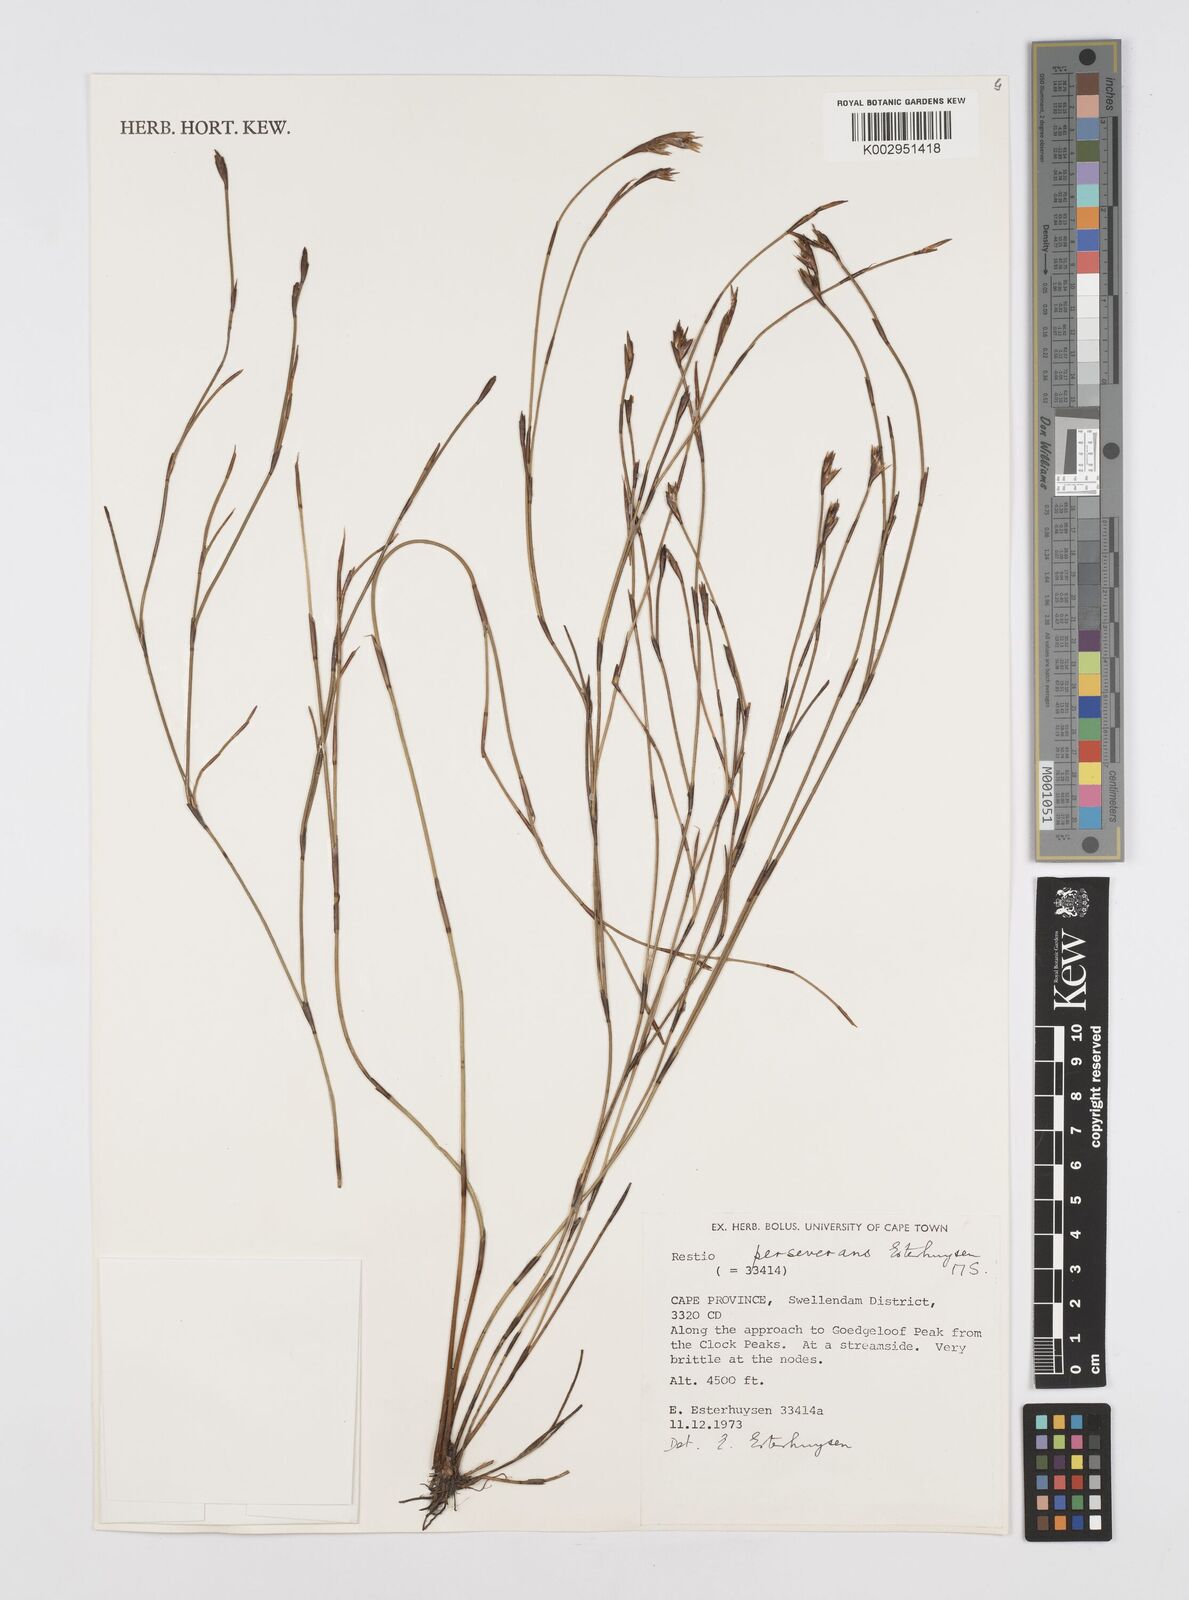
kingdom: Plantae
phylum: Tracheophyta
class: Liliopsida
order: Poales
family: Restionaceae
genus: Restio
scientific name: Restio perseverans
